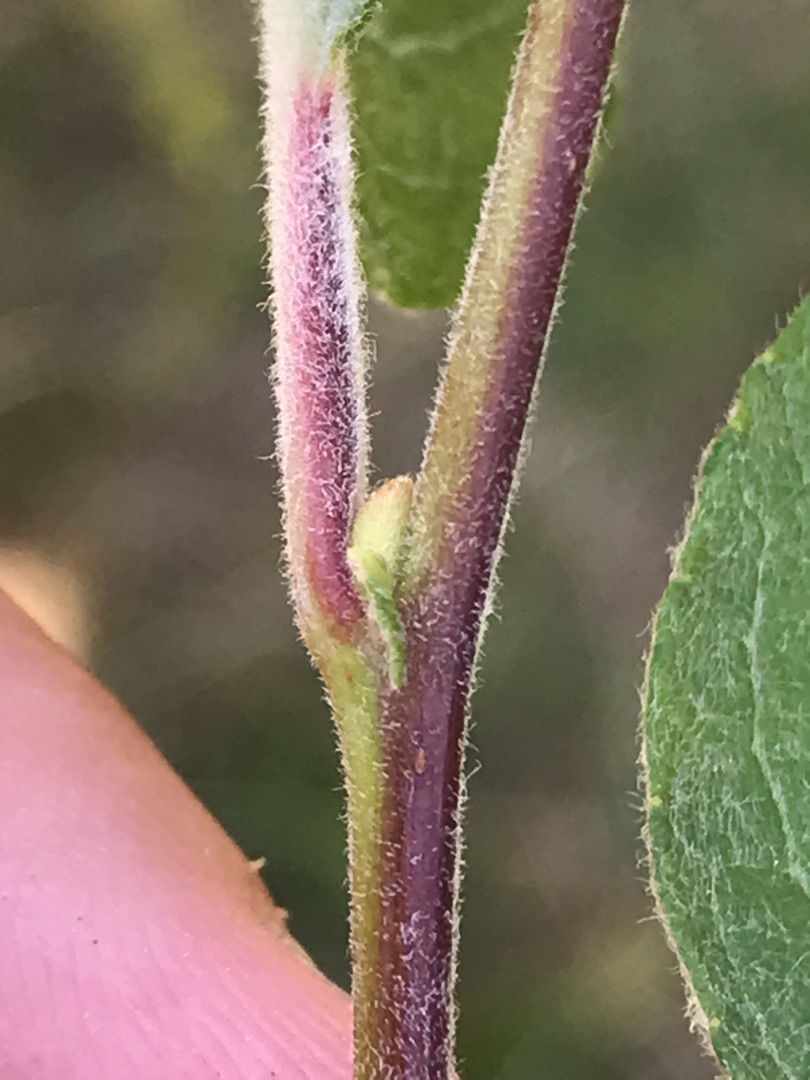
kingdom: Plantae
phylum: Tracheophyta
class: Magnoliopsida
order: Malpighiales
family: Salicaceae
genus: Salix
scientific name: Salix caprea
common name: Selje-pil
